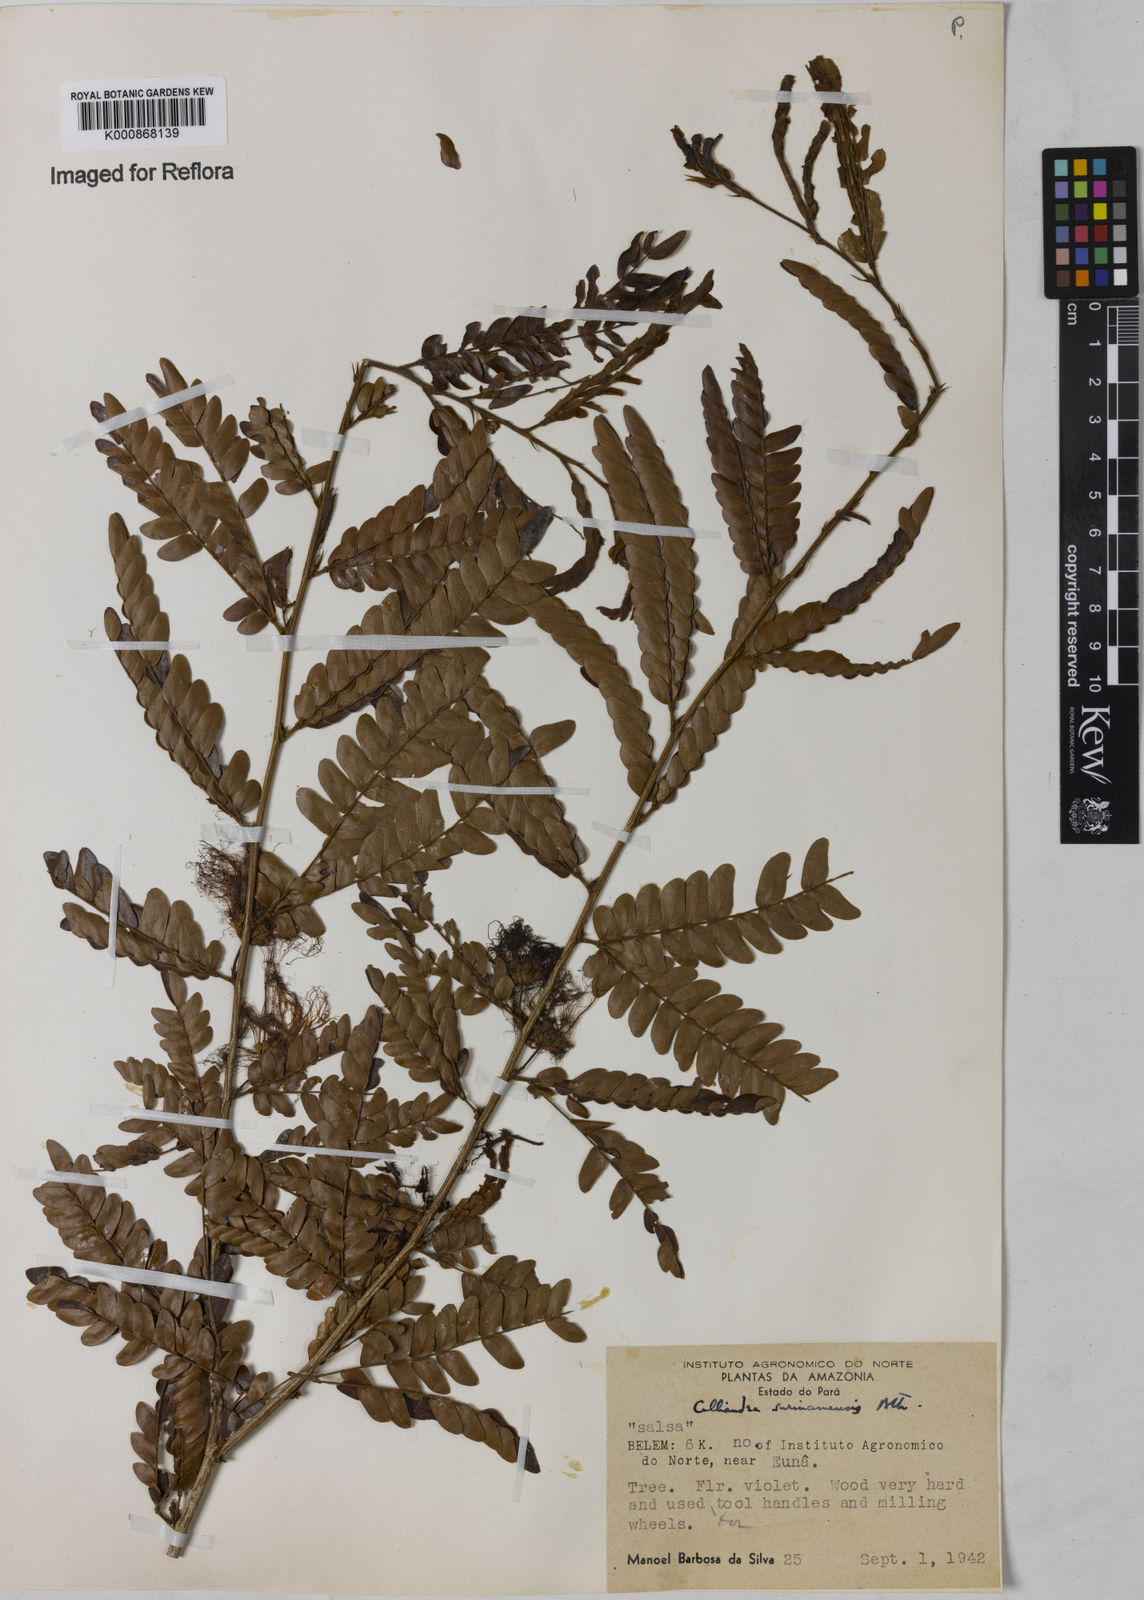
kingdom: Plantae
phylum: Tracheophyta
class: Magnoliopsida
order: Fabales
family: Fabaceae
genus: Calliandra
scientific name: Calliandra surinamensis
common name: Pink powder puff
